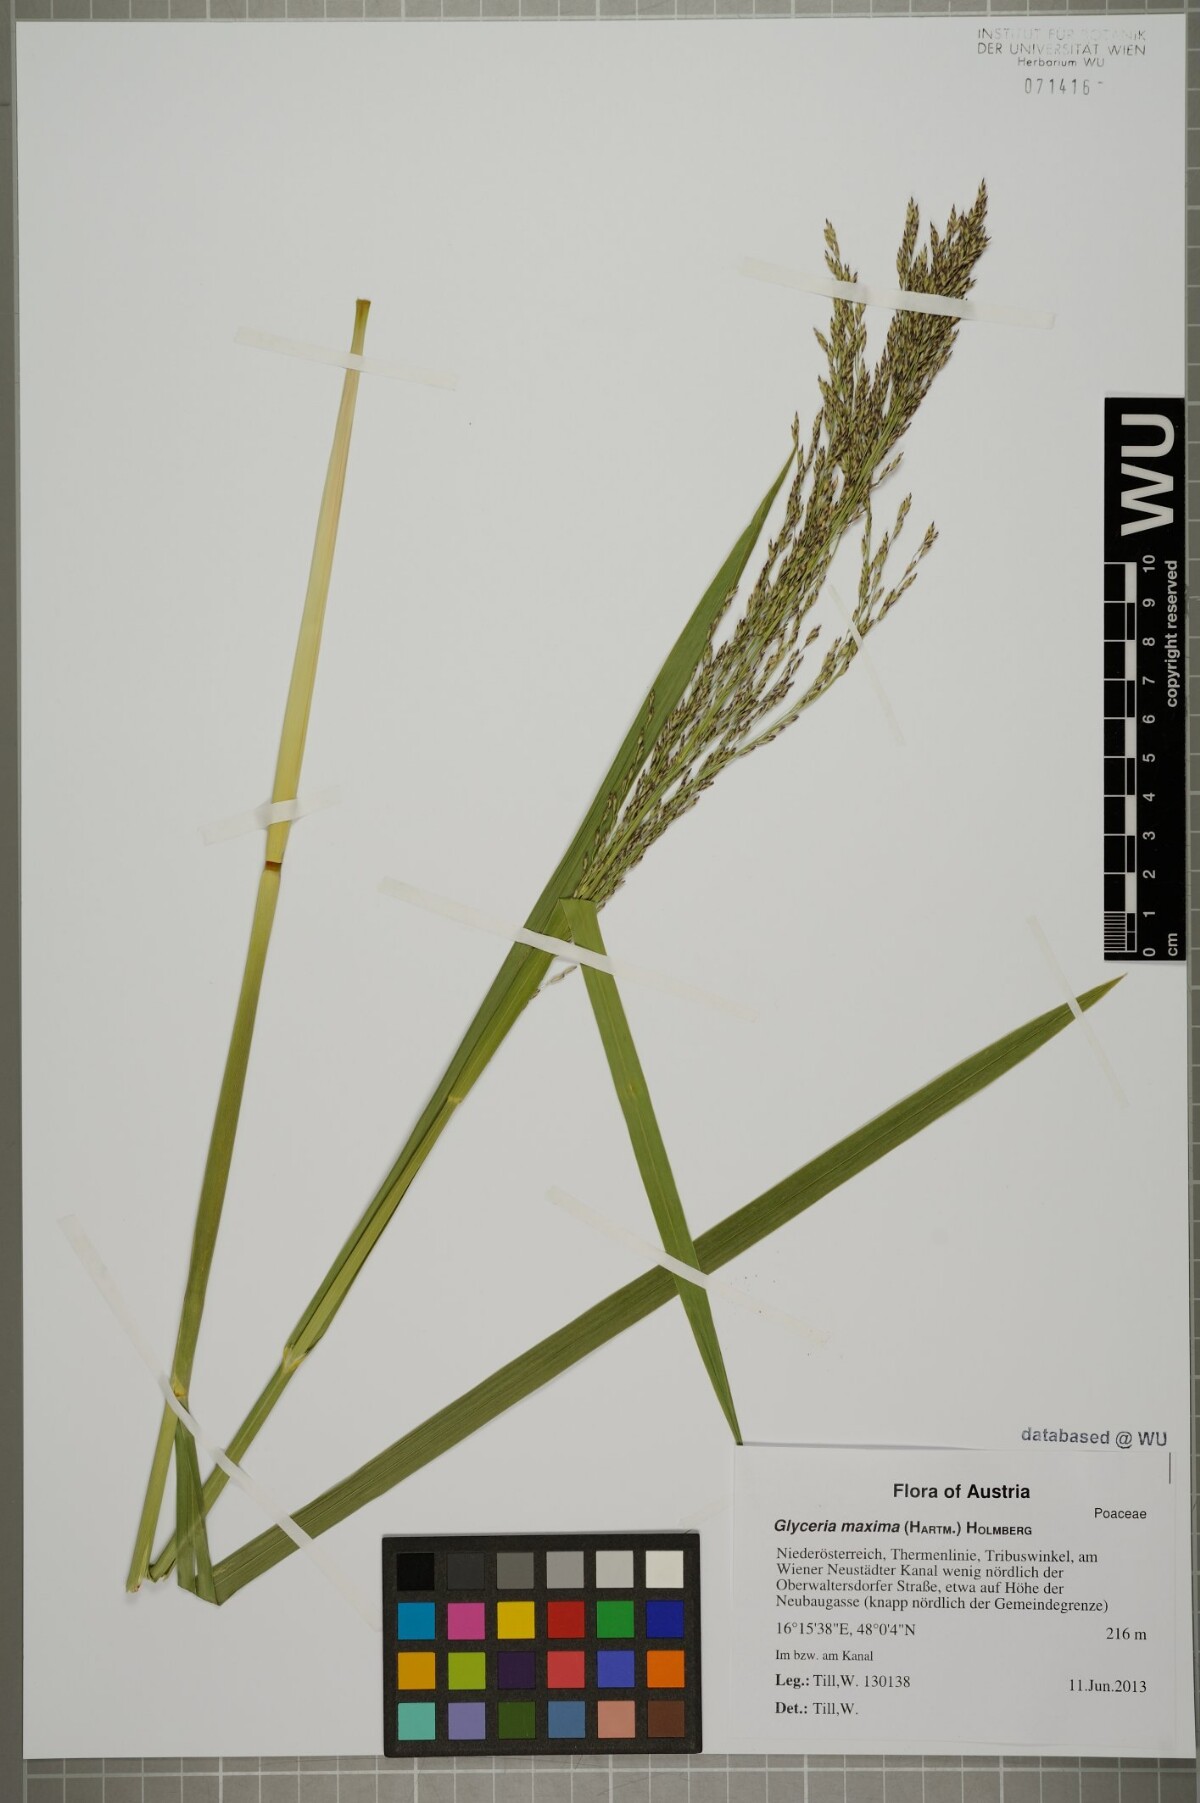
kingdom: Plantae
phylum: Tracheophyta
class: Liliopsida
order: Poales
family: Poaceae
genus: Glyceria
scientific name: Glyceria maxima
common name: Reed mannagrass
